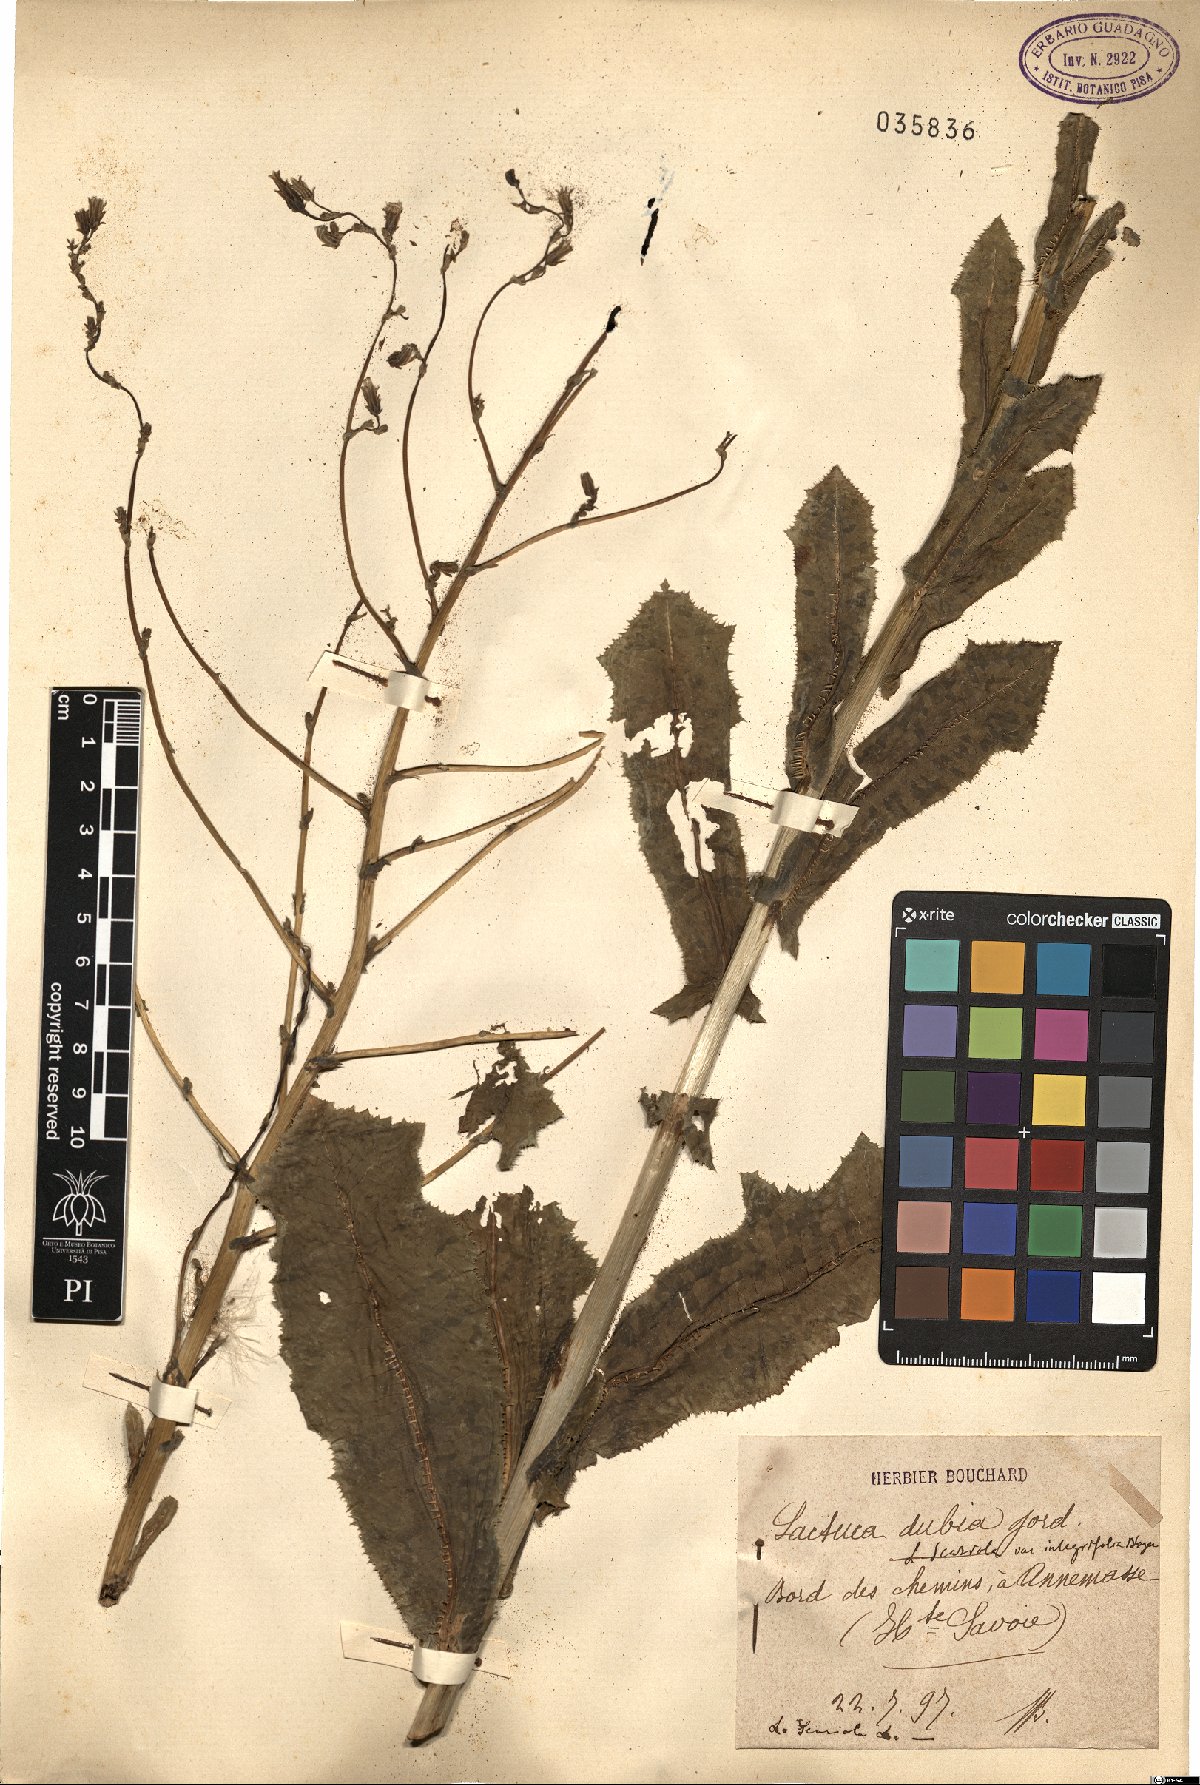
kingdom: Plantae
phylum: Tracheophyta
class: Magnoliopsida
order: Asterales
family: Asteraceae
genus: Lactuca
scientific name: Lactuca serriola
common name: Prickly lettuce
